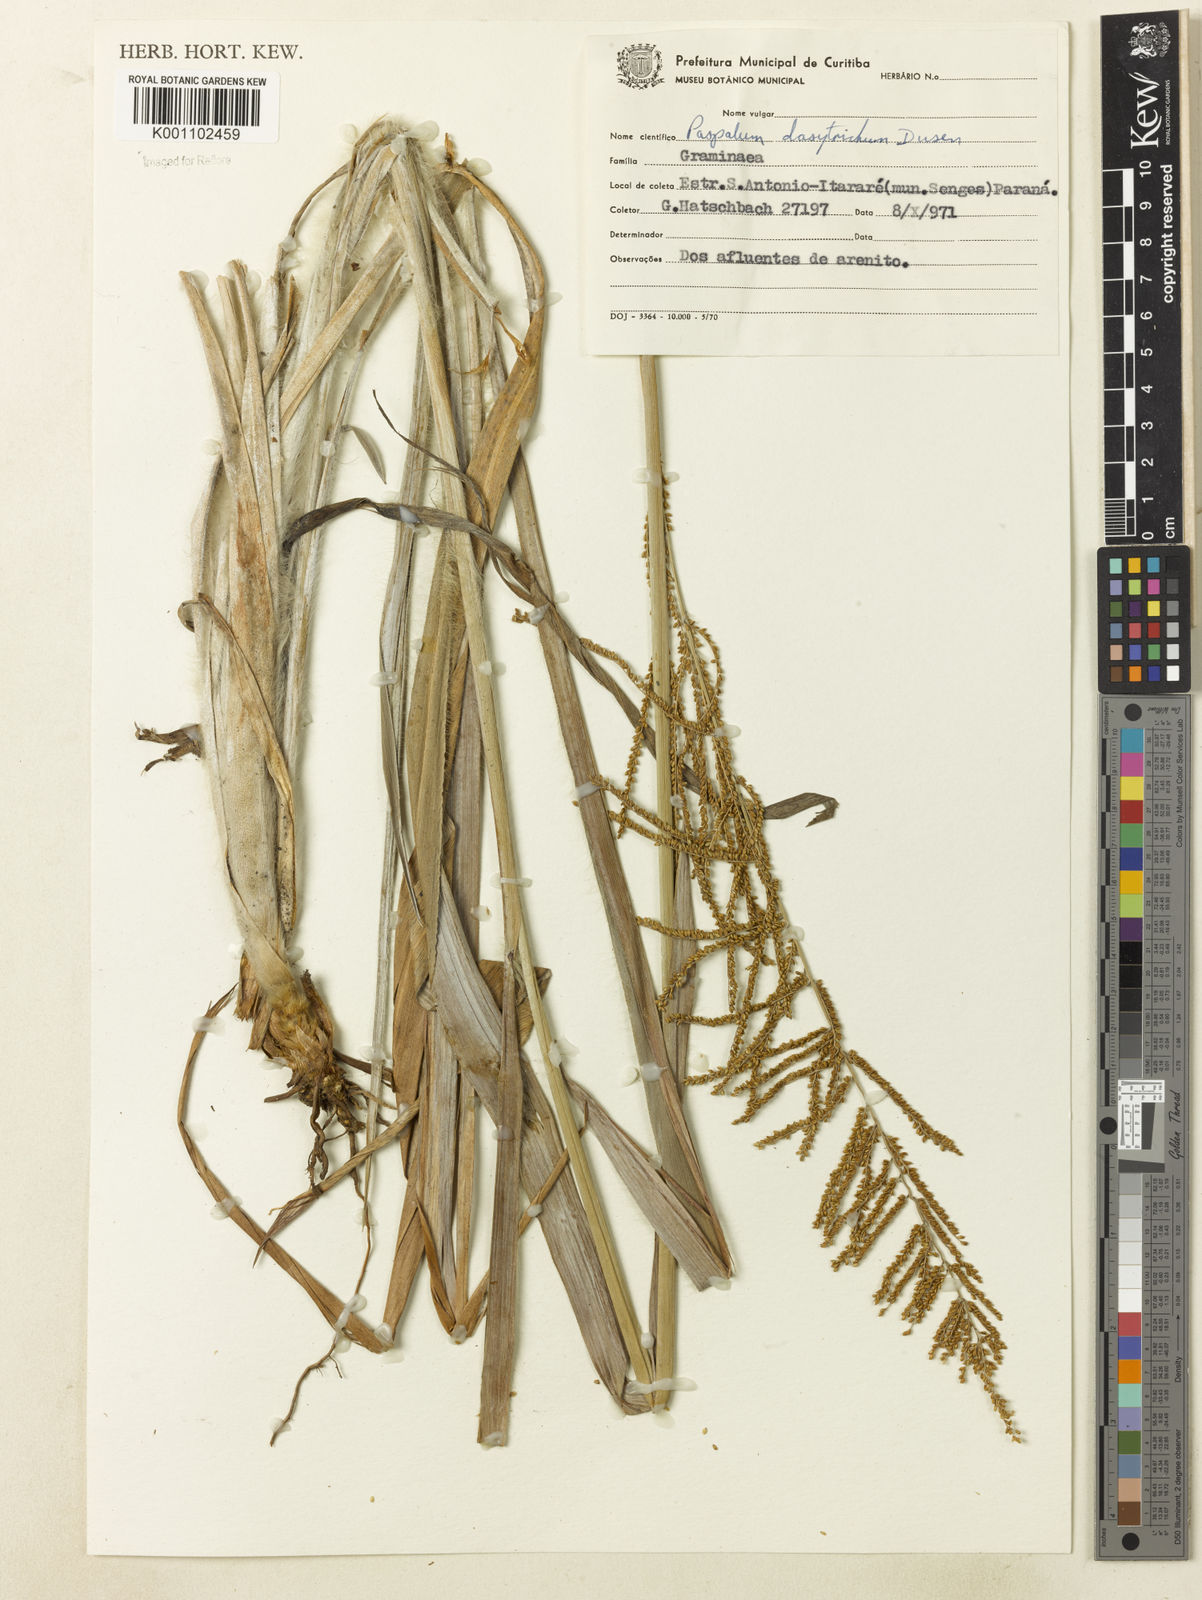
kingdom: Plantae
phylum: Tracheophyta
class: Liliopsida
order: Poales
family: Poaceae
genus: Paspalum
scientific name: Paspalum
